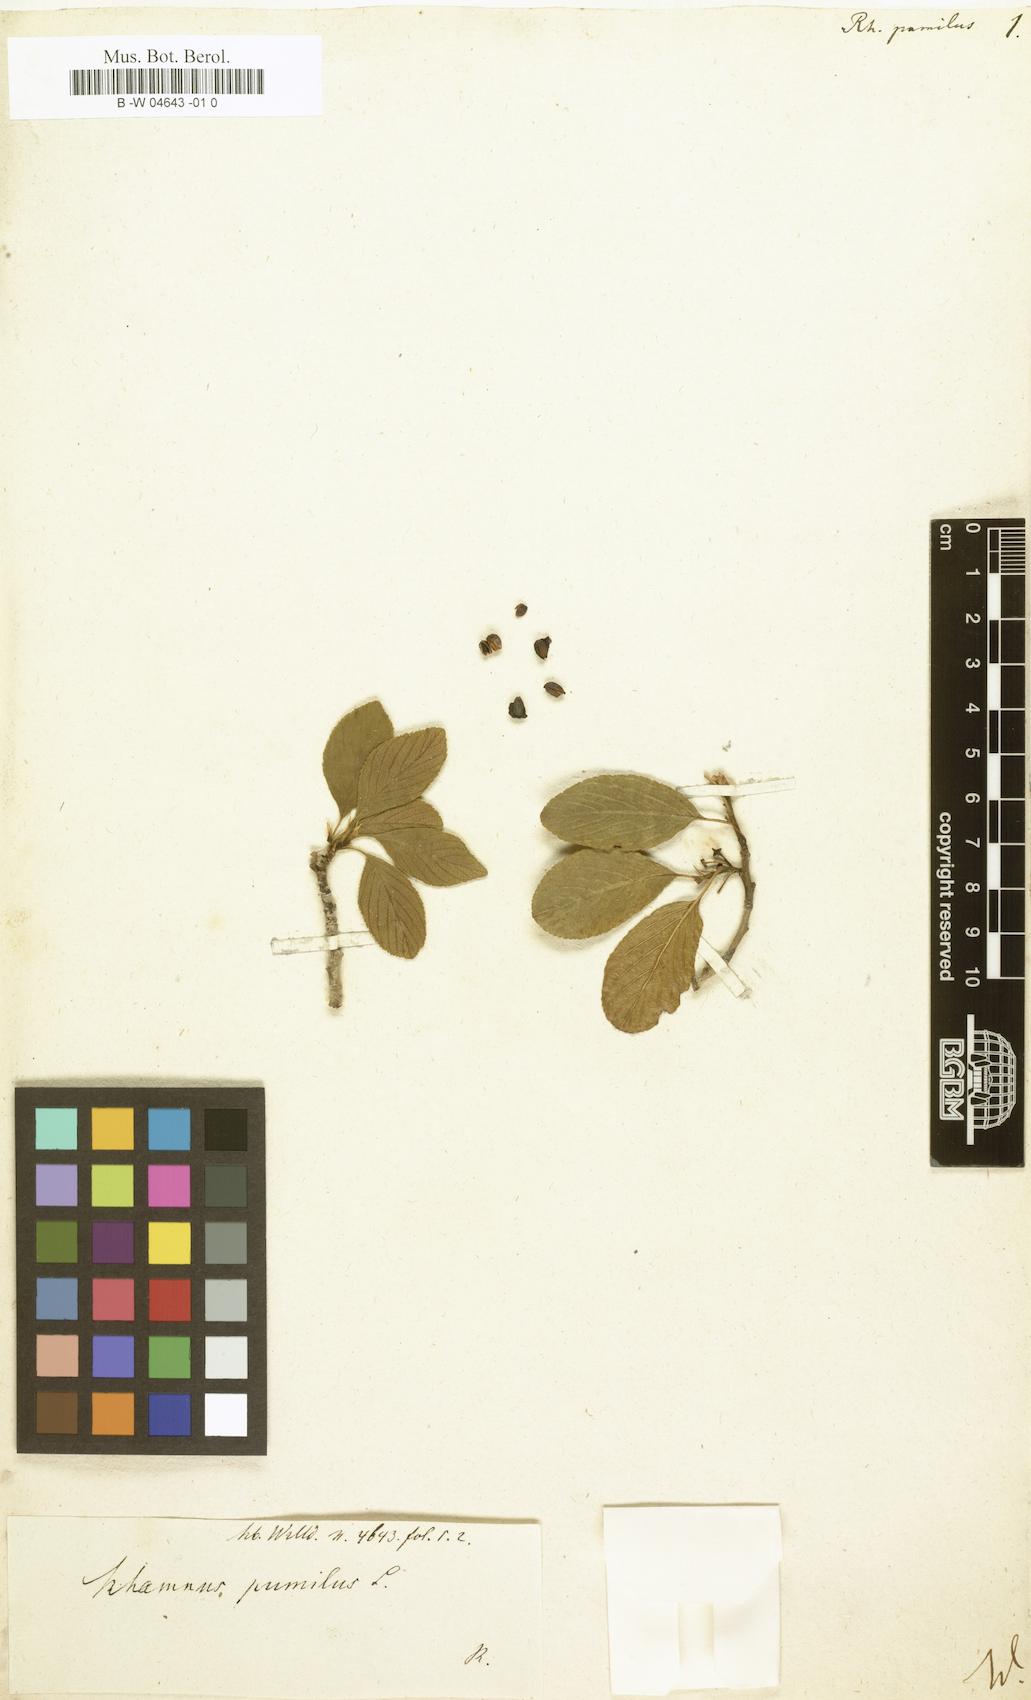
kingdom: Plantae
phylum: Tracheophyta
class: Magnoliopsida
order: Rosales
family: Rhamnaceae
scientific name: Rhamnaceae
